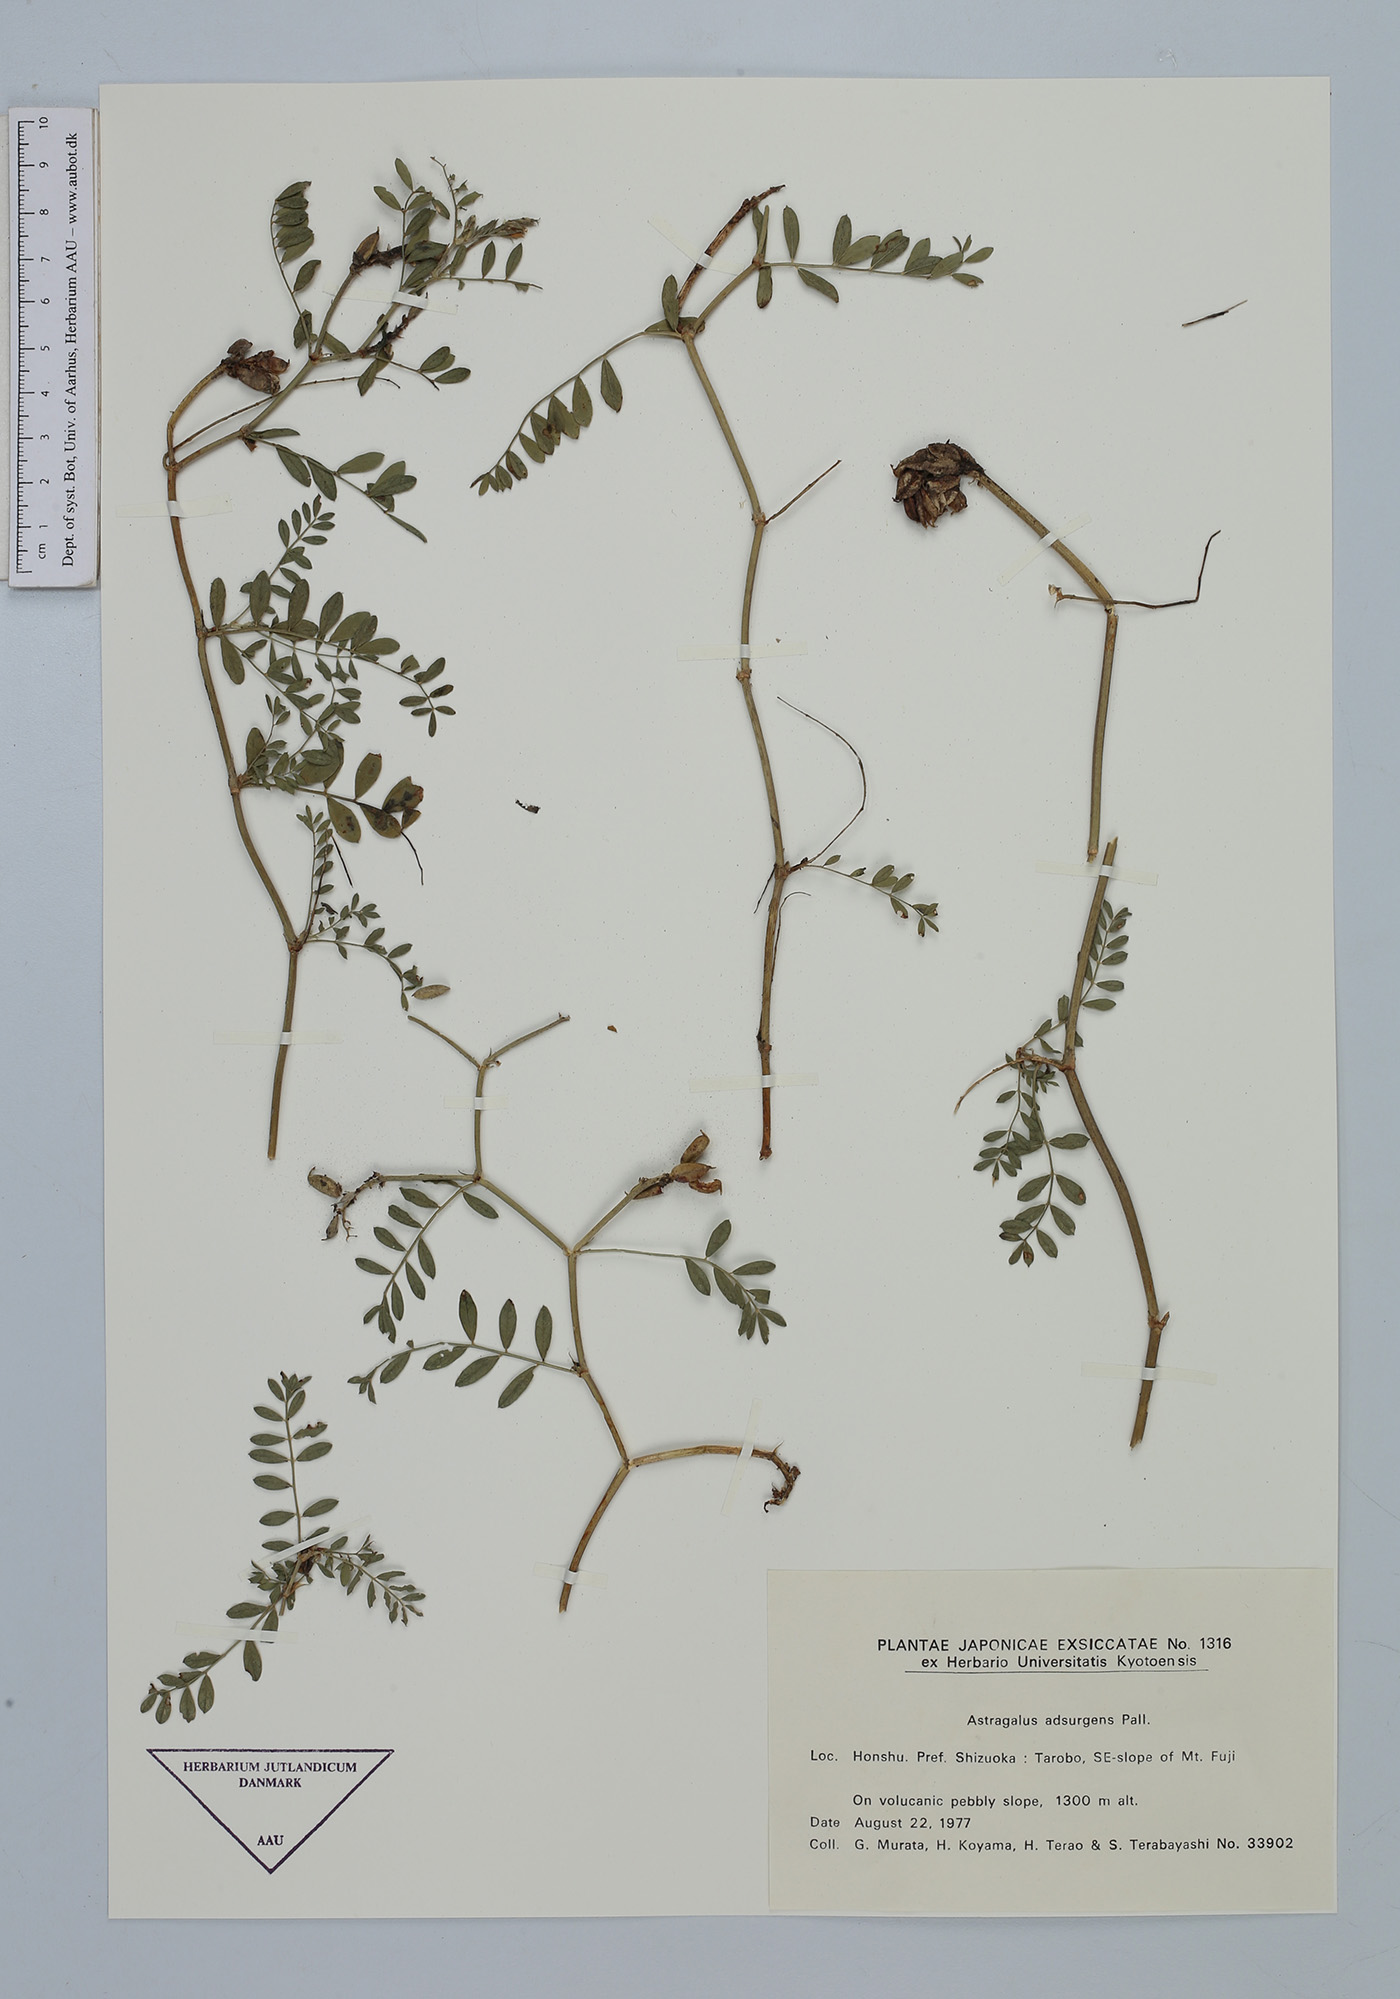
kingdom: Plantae
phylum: Tracheophyta
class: Magnoliopsida
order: Fabales
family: Fabaceae
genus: Astragalus
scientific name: Astragalus laxmannii
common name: Laxmann's milk-vetch
